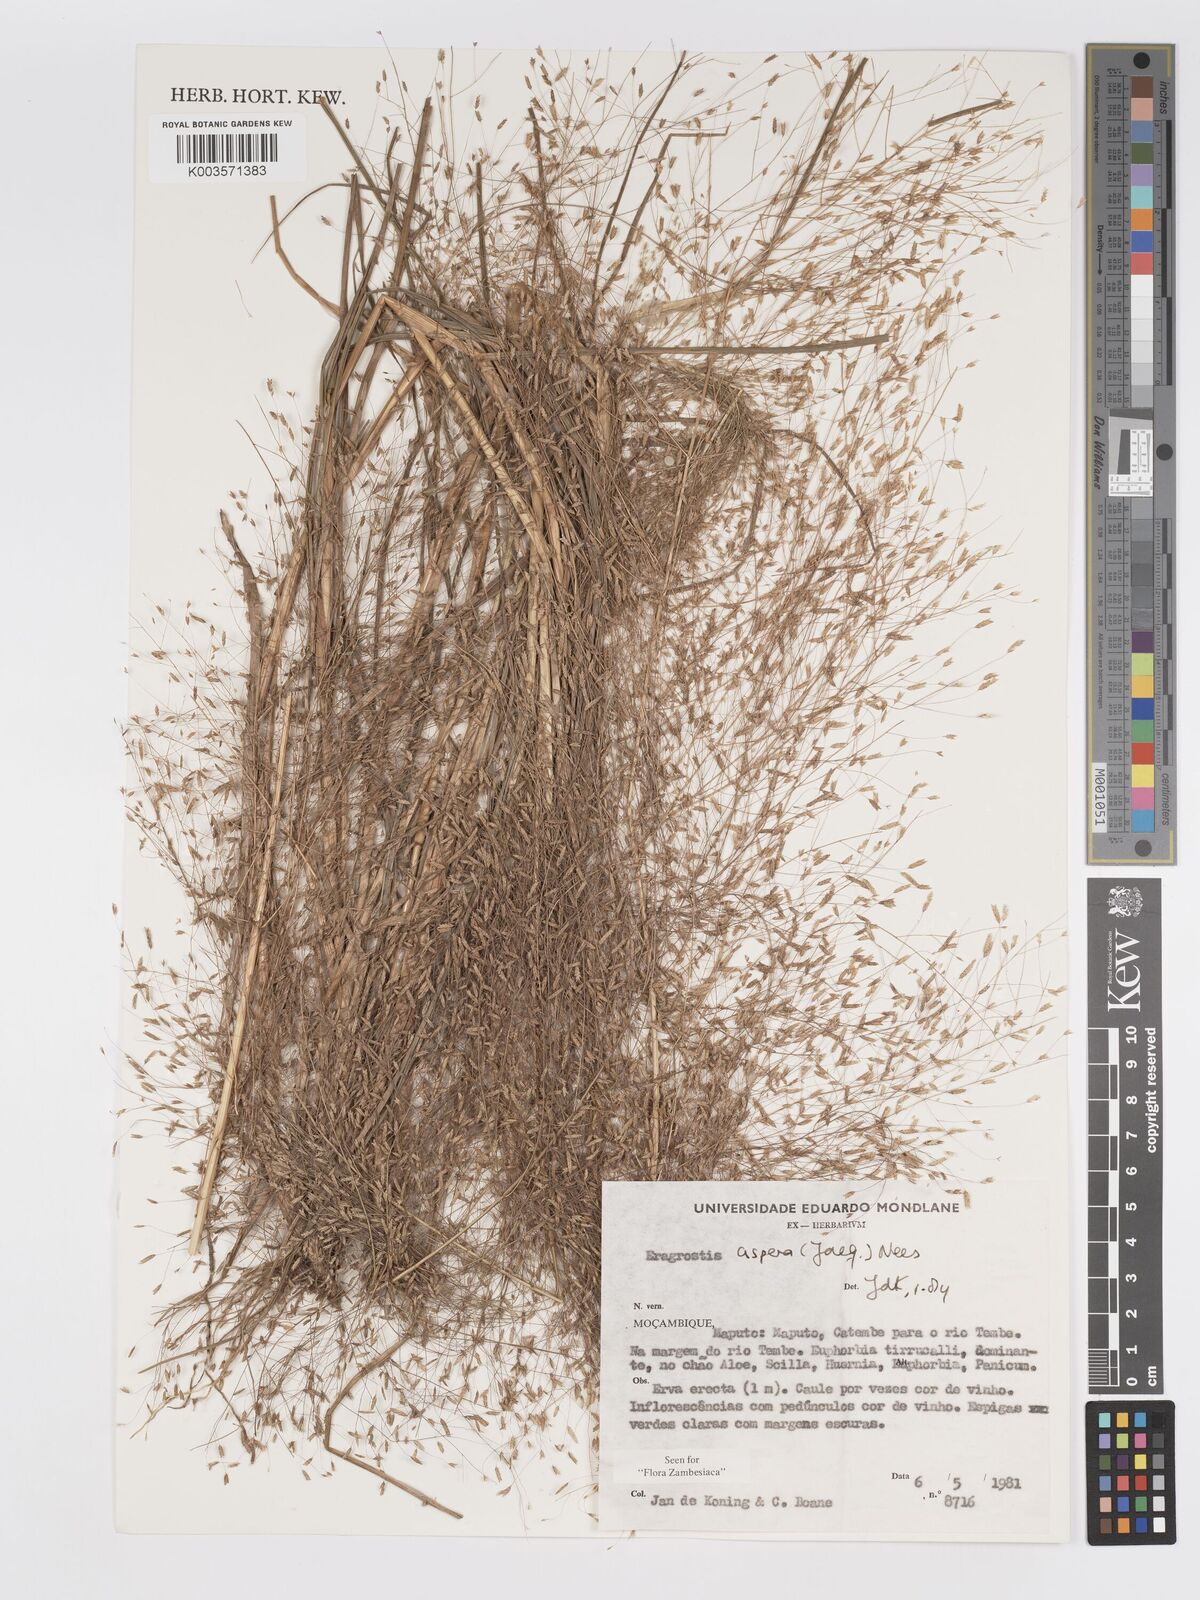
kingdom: Plantae
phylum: Tracheophyta
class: Liliopsida
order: Poales
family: Poaceae
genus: Eragrostis
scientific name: Eragrostis aspera
